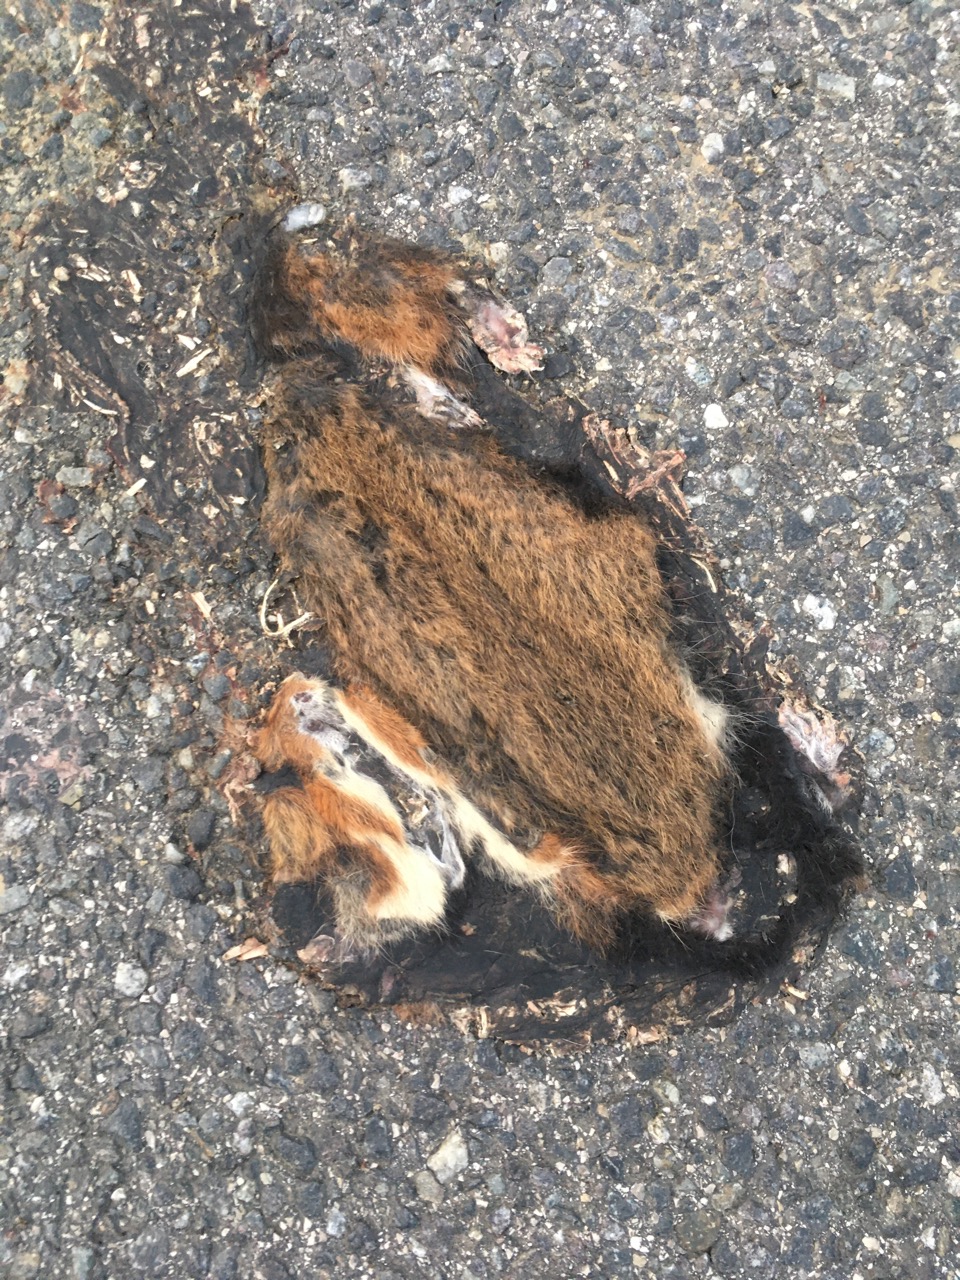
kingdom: Animalia
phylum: Chordata
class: Mammalia
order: Rodentia
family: Cricetidae
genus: Cricetus
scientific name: Cricetus cricetus
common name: Common hamster
